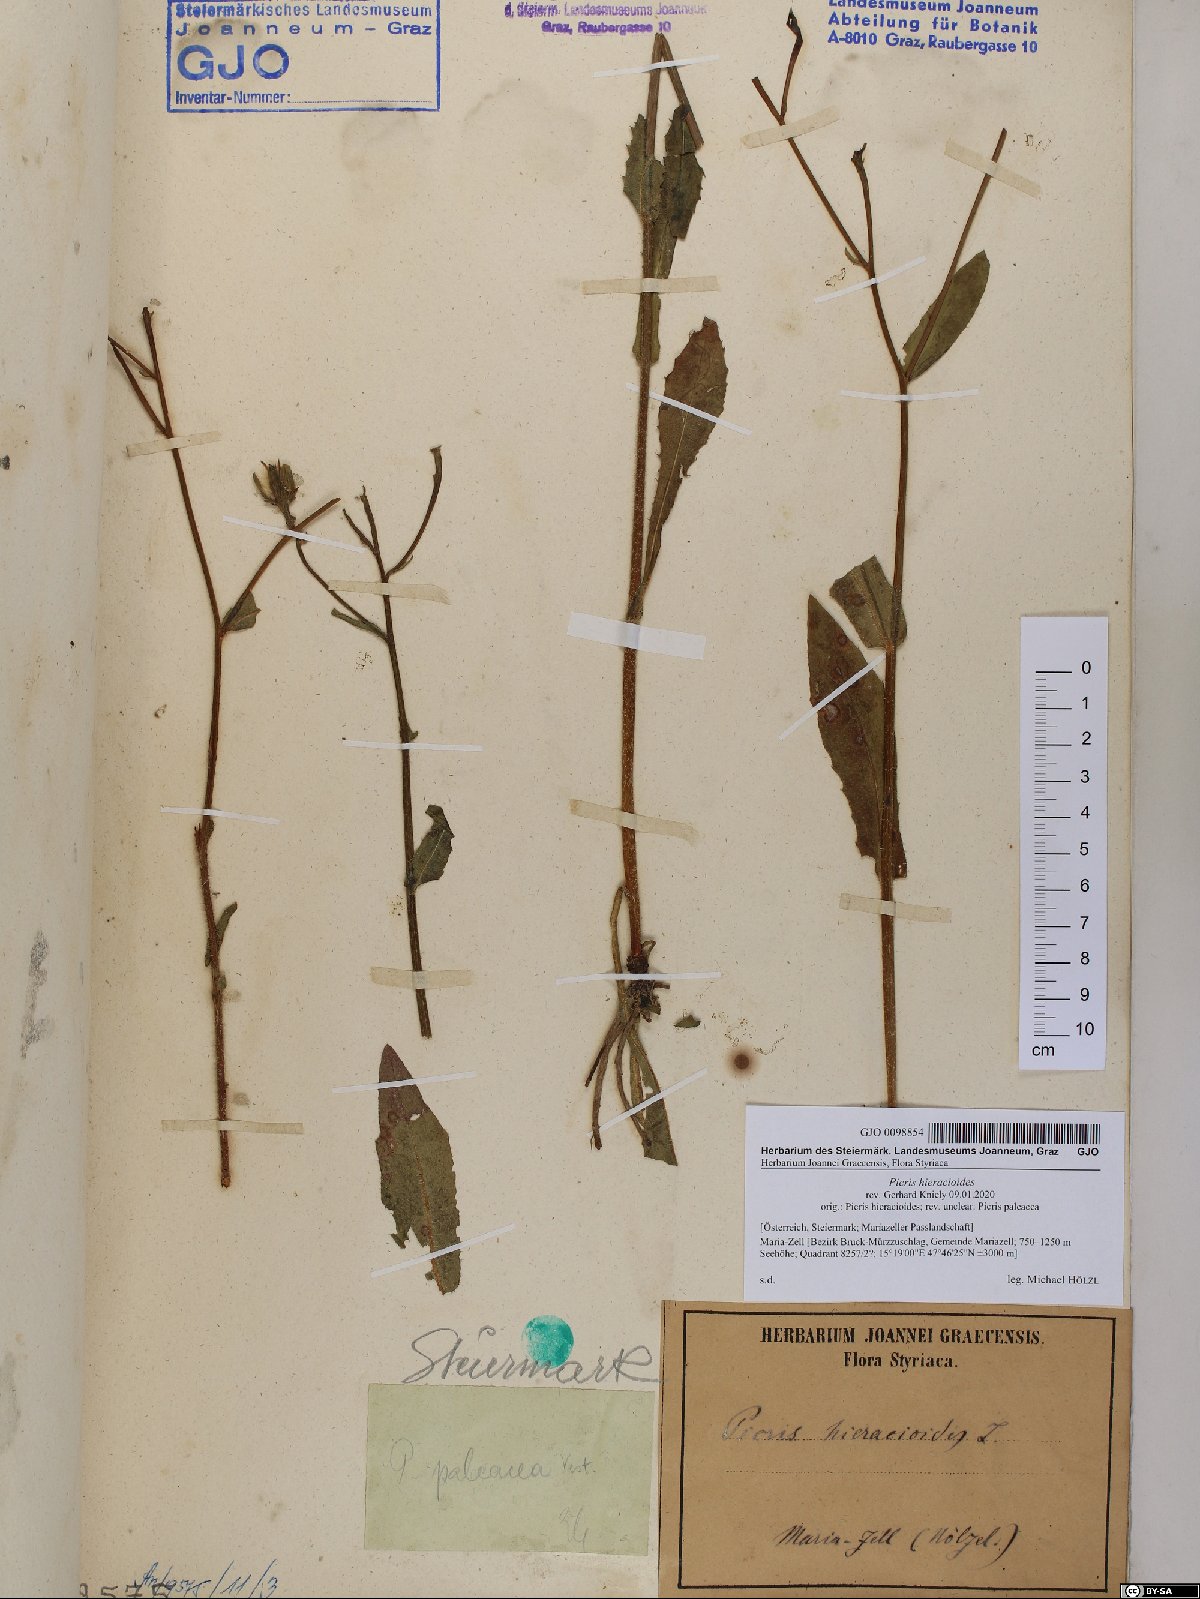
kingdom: Plantae
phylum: Tracheophyta
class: Magnoliopsida
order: Asterales
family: Asteraceae
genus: Picris
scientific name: Picris hieracioides
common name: Hawkweed oxtongue
